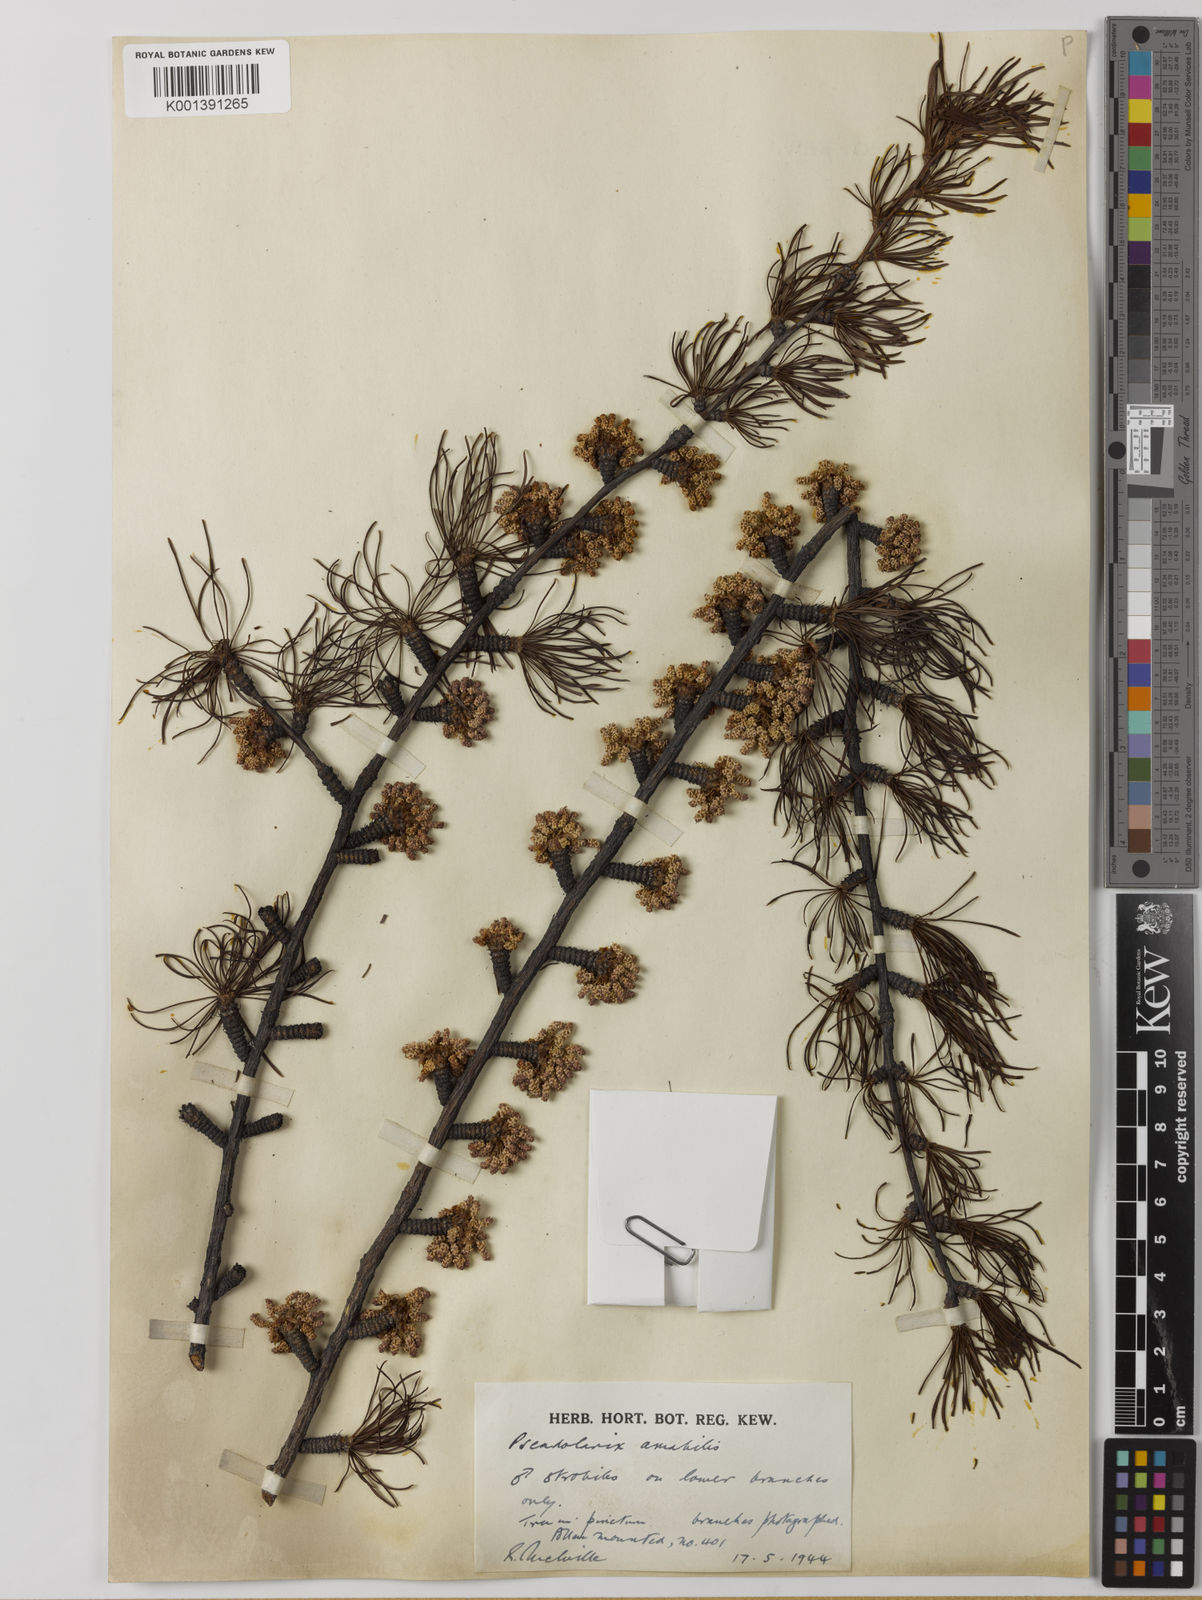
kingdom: Plantae
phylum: Tracheophyta
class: Pinopsida
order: Pinales
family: Pinaceae
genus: Pseudolarix
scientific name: Pseudolarix amabilis
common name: Chinese golden larch
